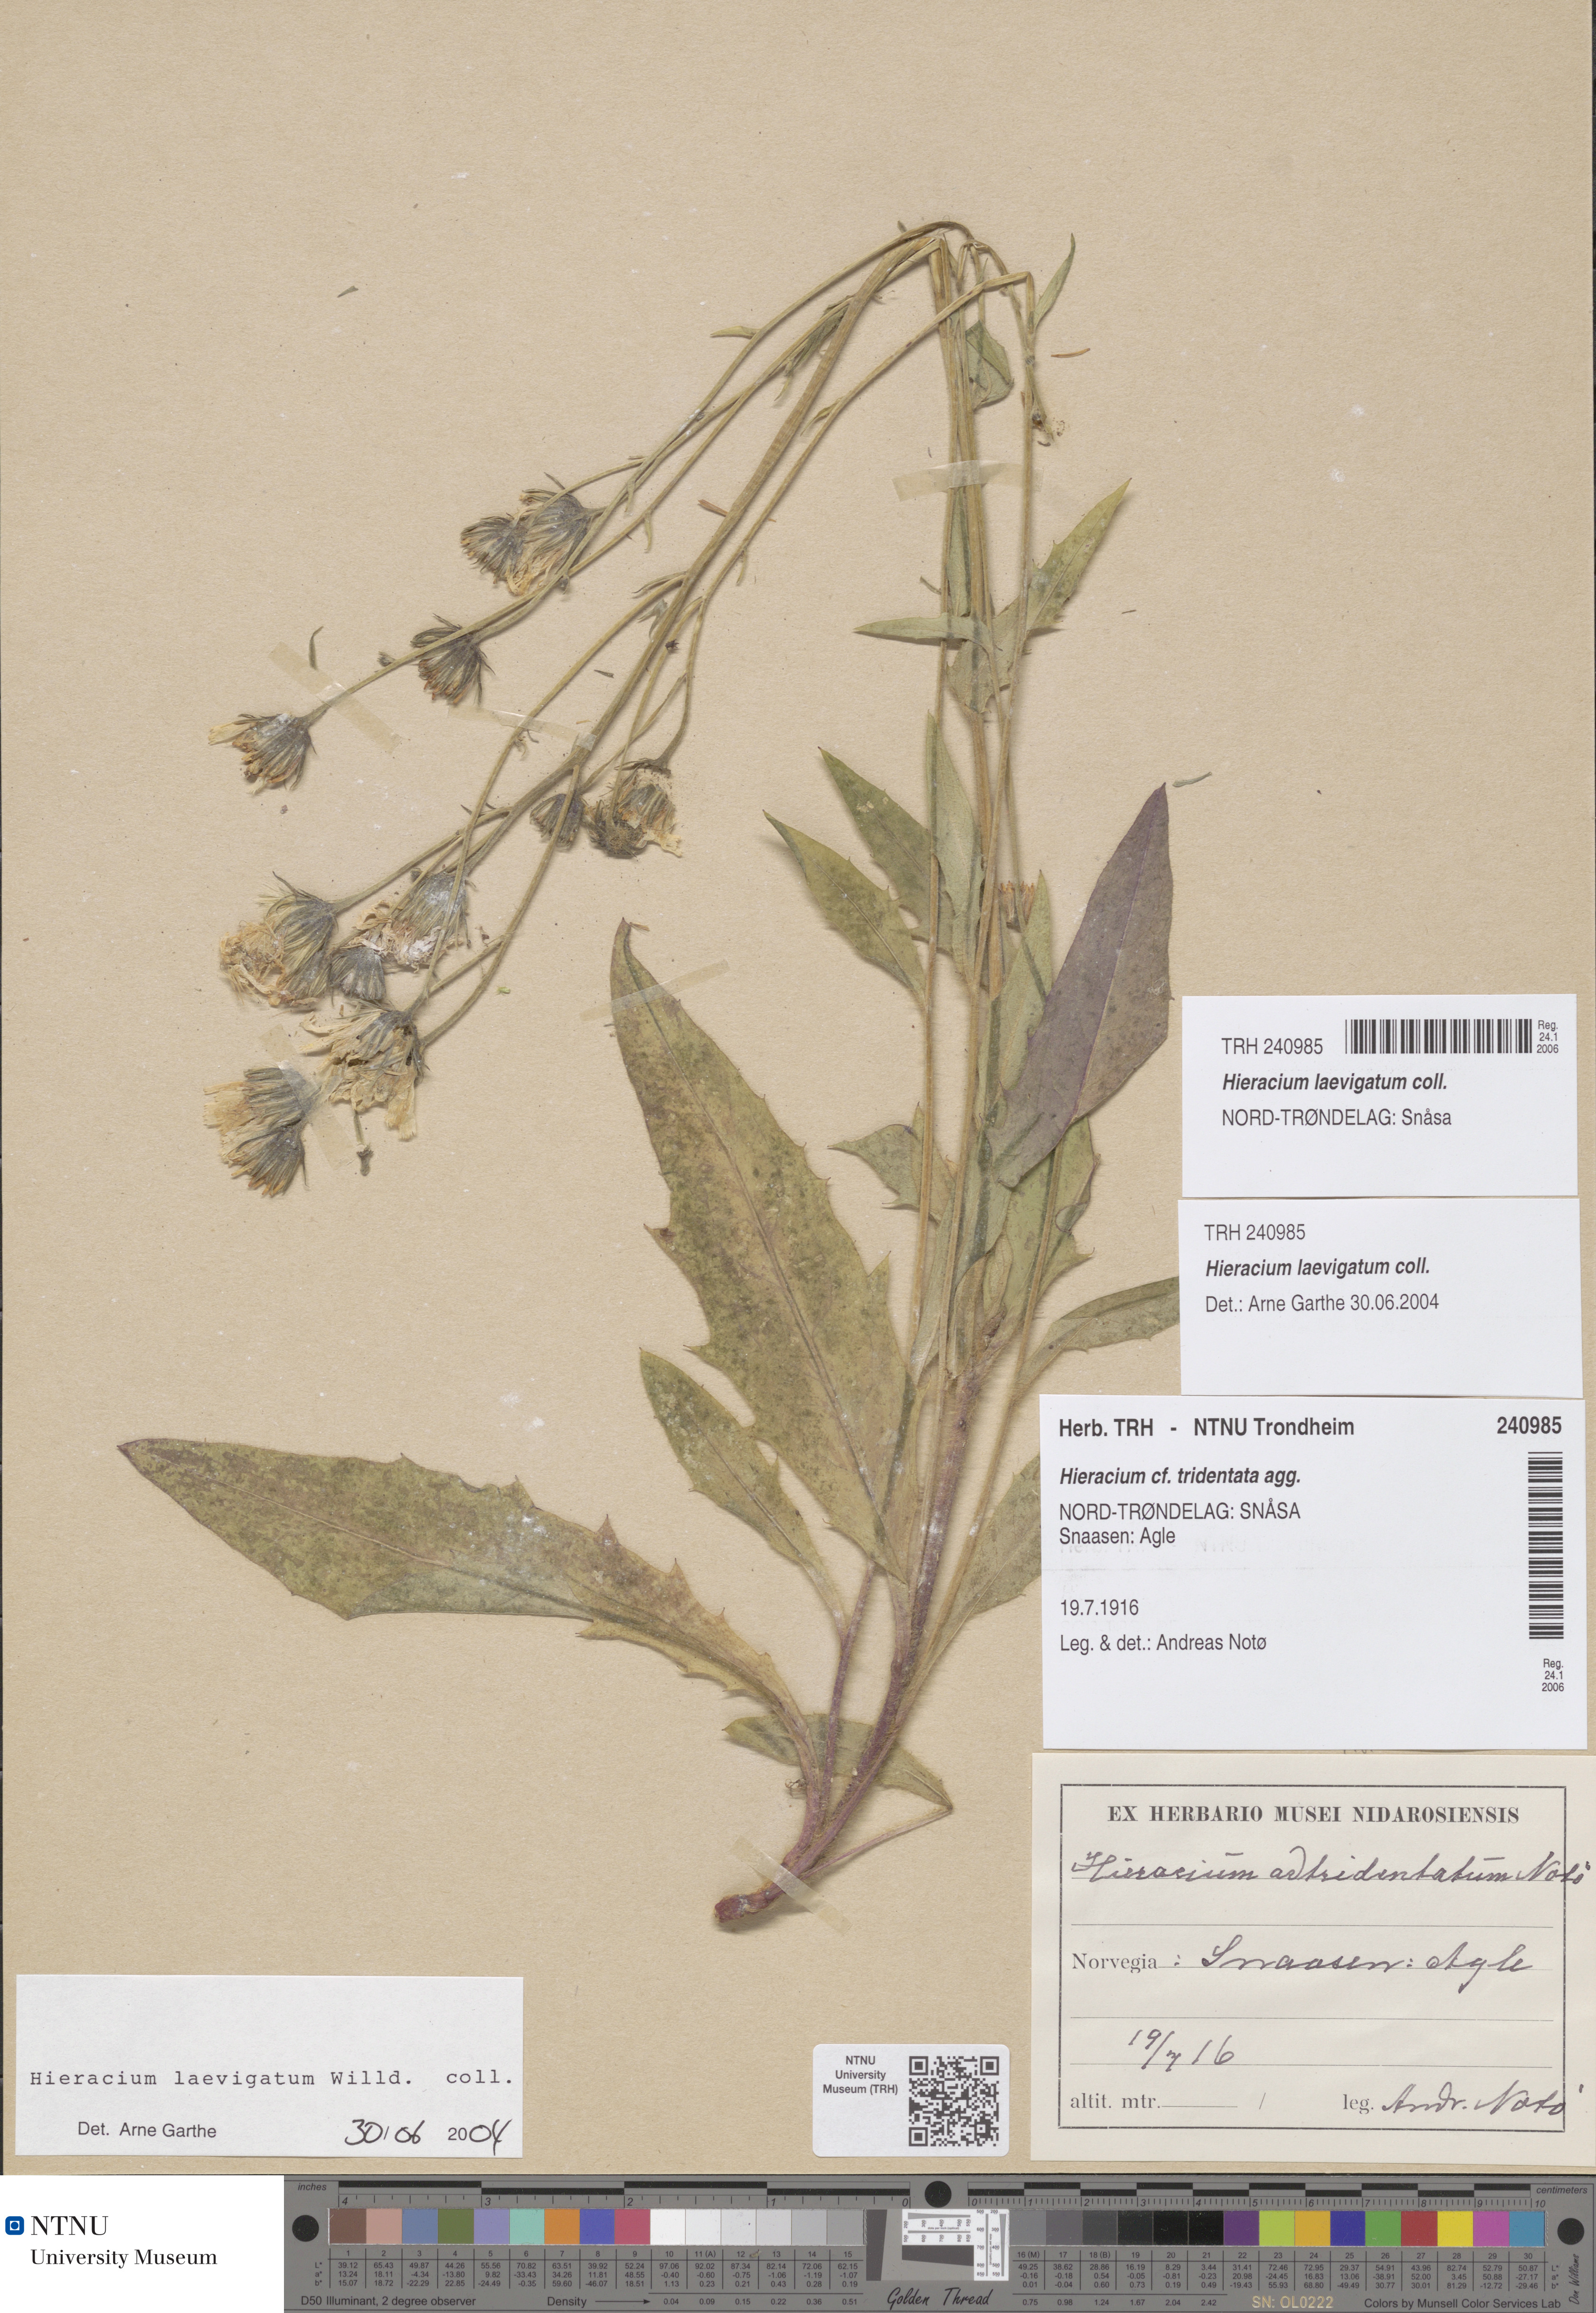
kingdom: Plantae
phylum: Tracheophyta
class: Magnoliopsida
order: Asterales
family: Asteraceae
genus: Hieracium
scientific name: Hieracium laevigatum
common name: Smooth hawkweed
